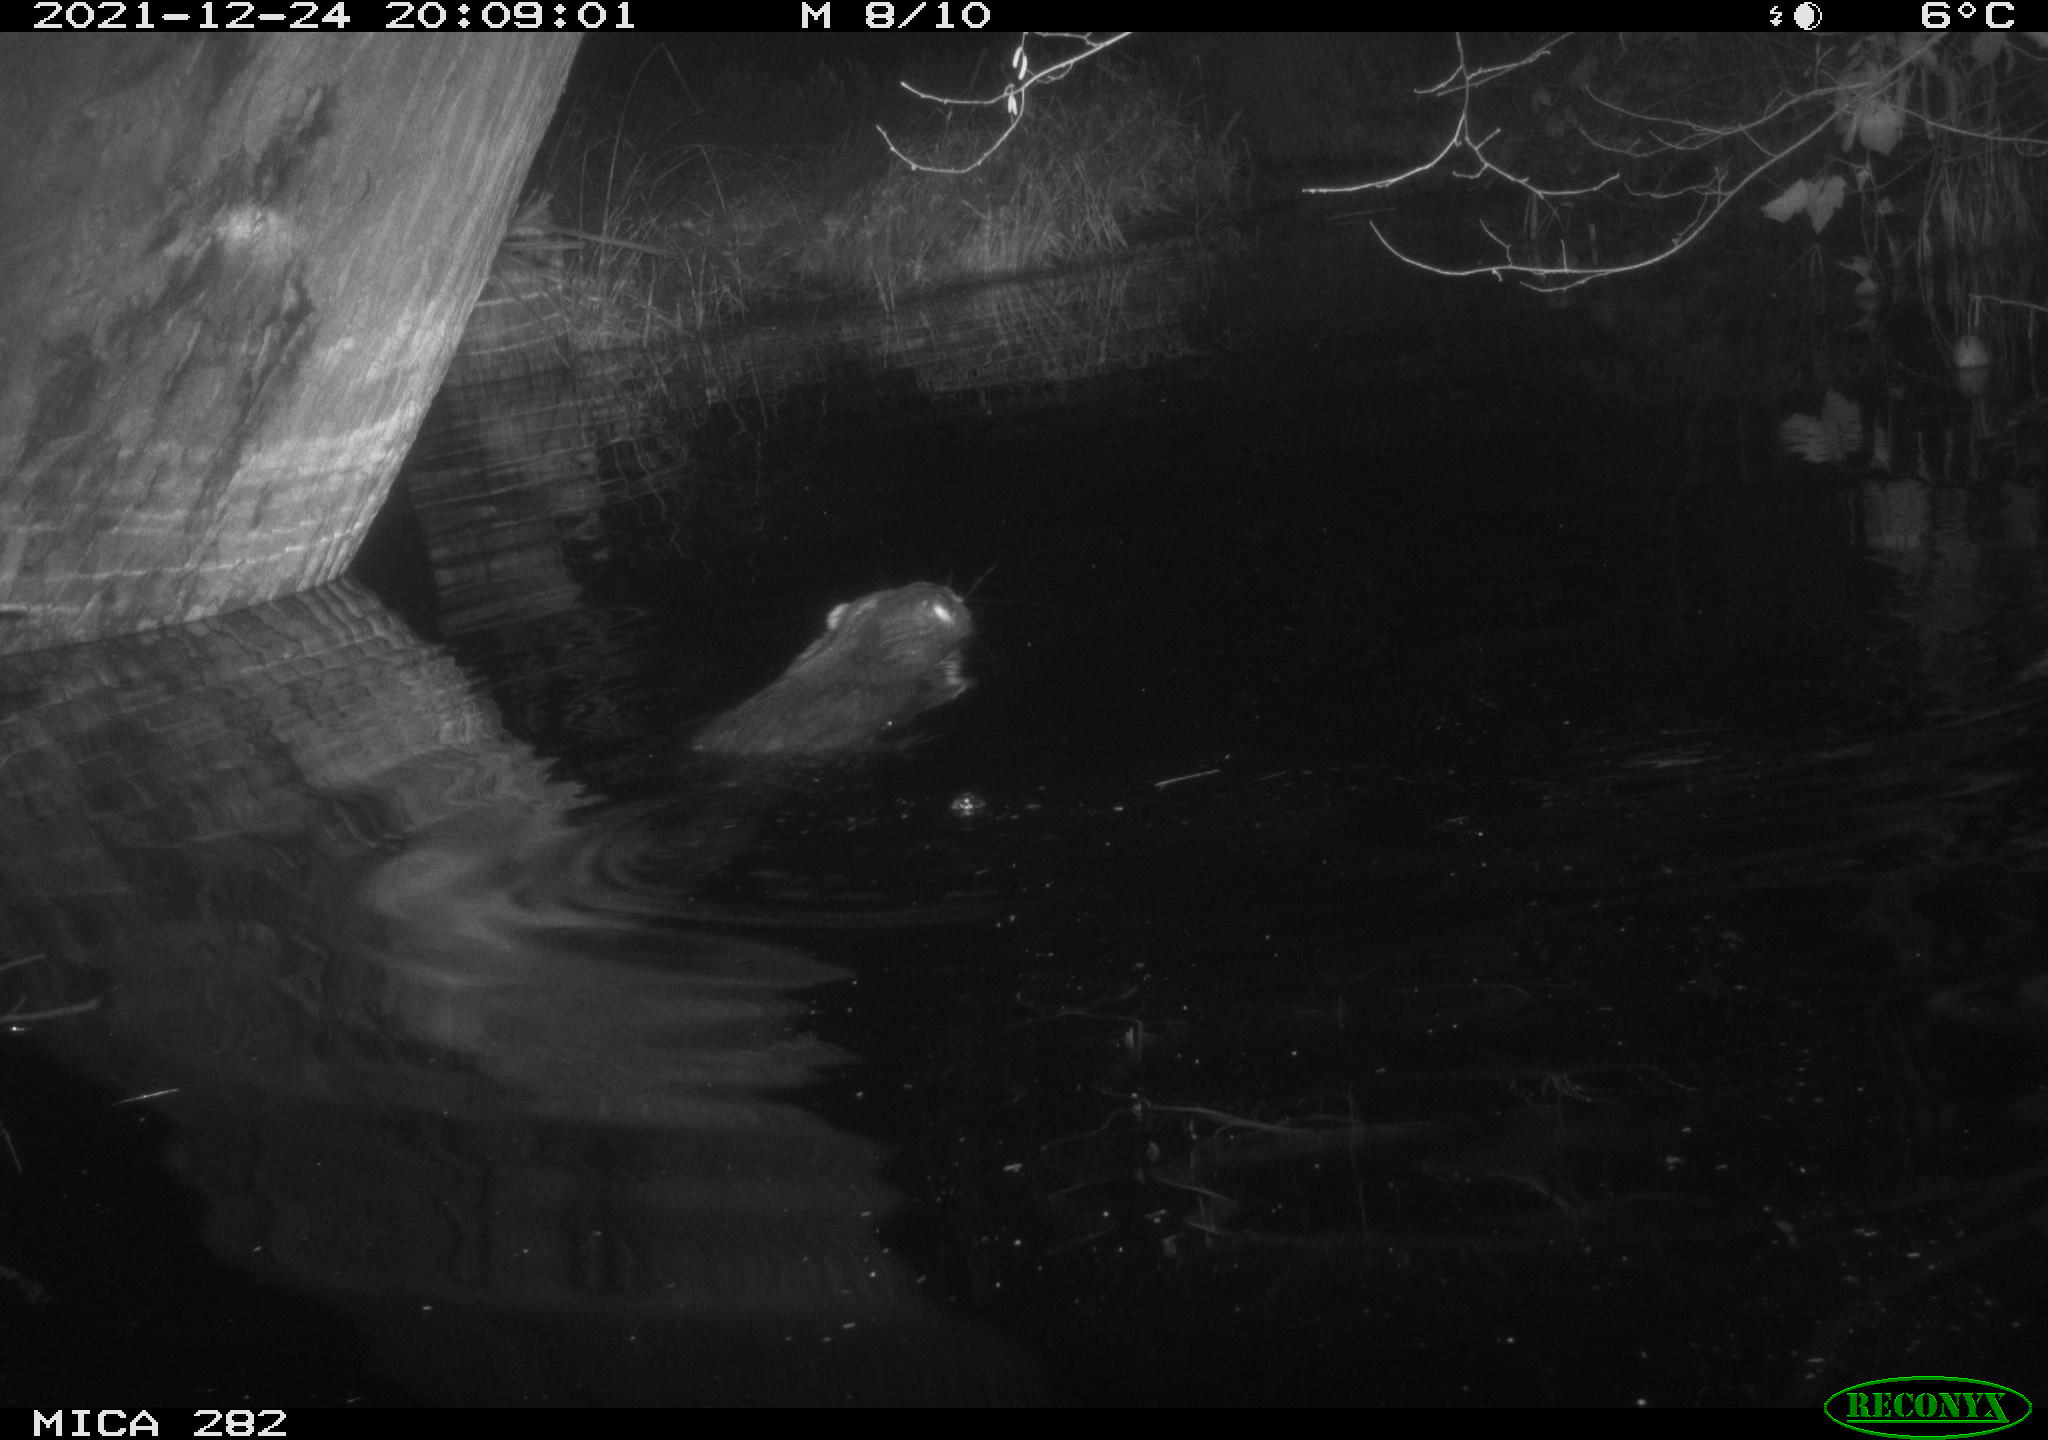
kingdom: Animalia
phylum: Chordata
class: Mammalia
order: Rodentia
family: Castoridae
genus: Castor
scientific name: Castor fiber
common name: Eurasian beaver
